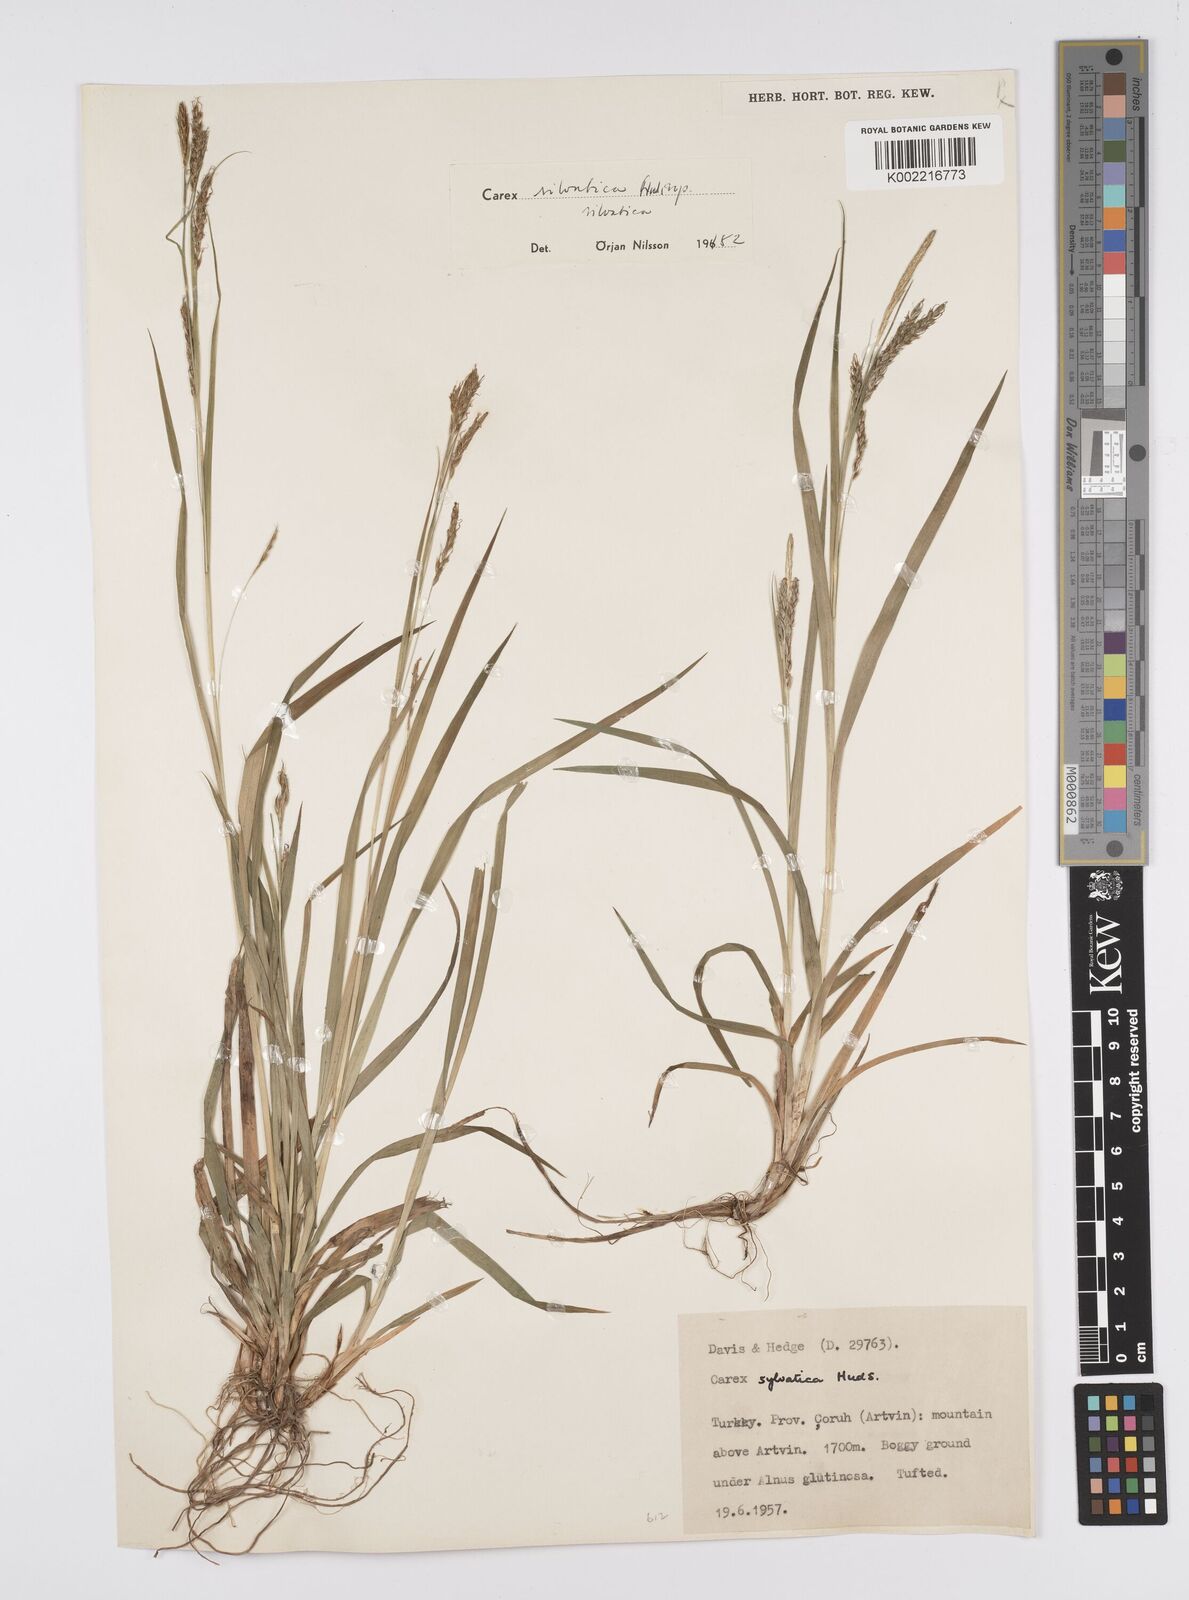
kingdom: Plantae
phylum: Tracheophyta
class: Liliopsida
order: Poales
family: Cyperaceae
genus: Carex
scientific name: Carex sylvatica
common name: Wood-sedge
